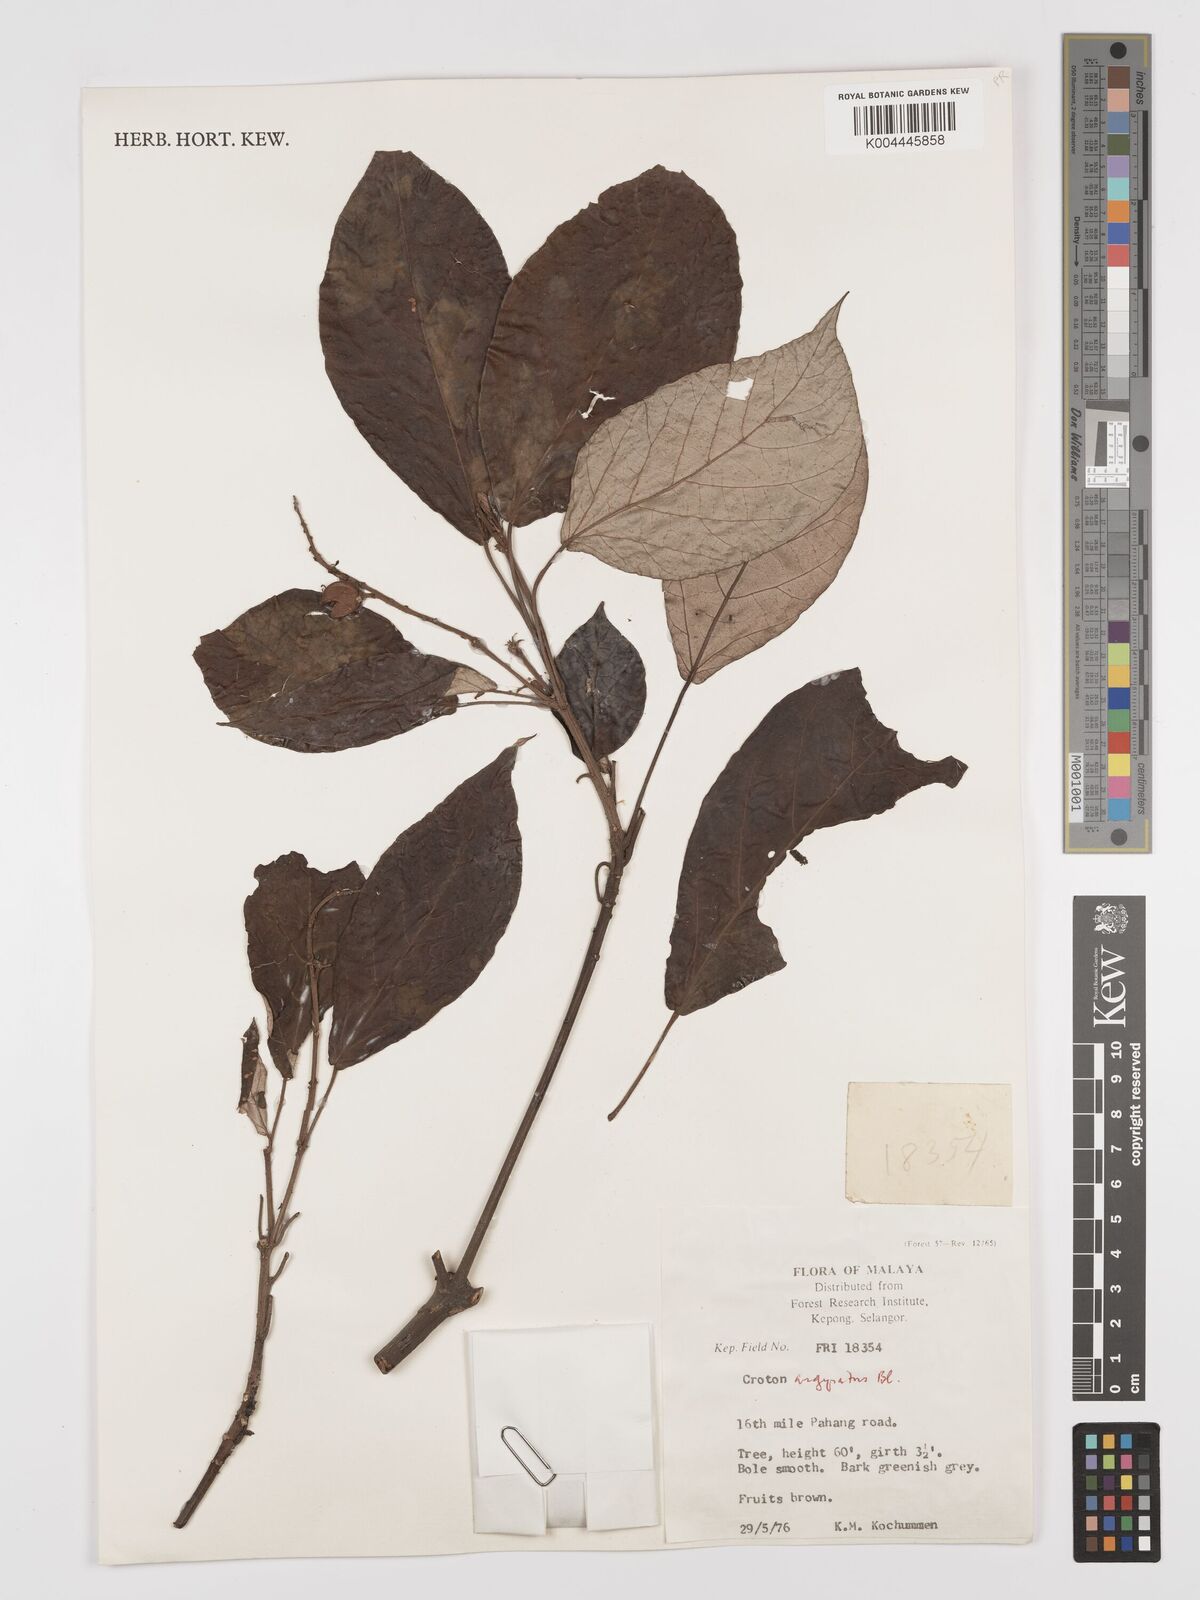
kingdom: Plantae
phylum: Tracheophyta
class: Magnoliopsida
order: Malpighiales
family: Euphorbiaceae
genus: Croton
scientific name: Croton argyratus
